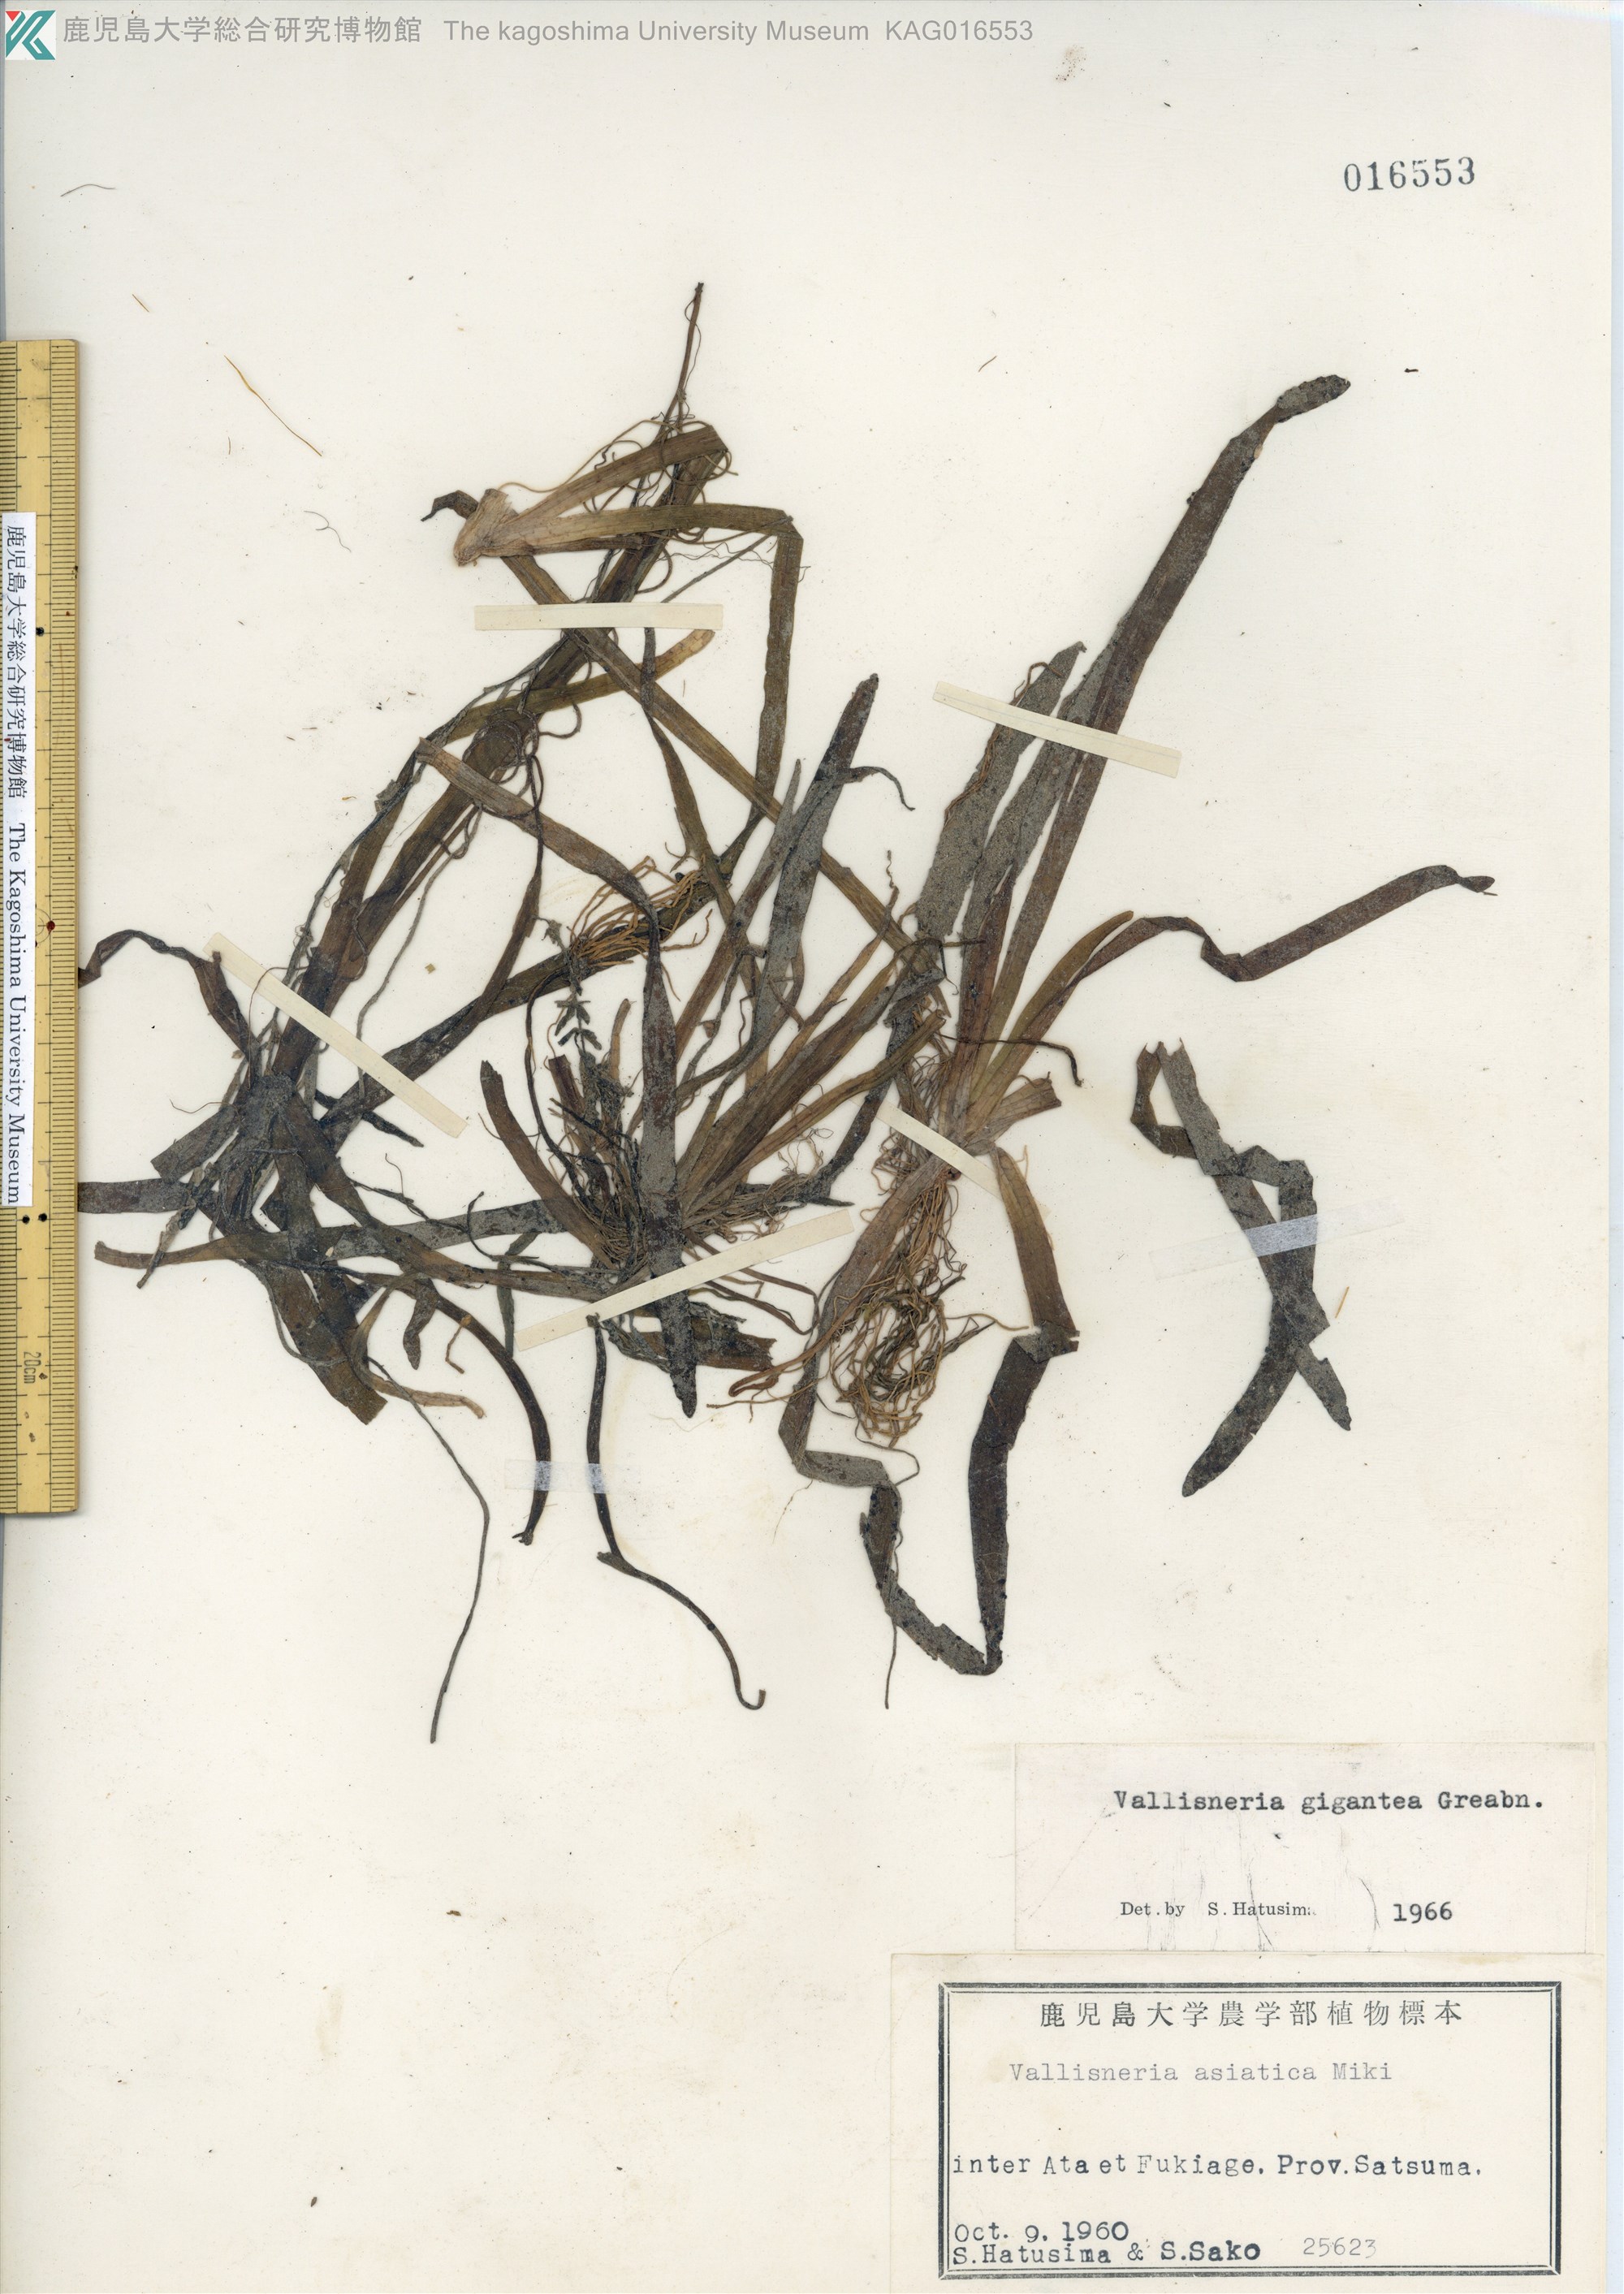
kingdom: Plantae
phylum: Tracheophyta
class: Liliopsida
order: Alismatales
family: Hydrocharitaceae
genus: Vallisneria
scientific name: Vallisneria natans
